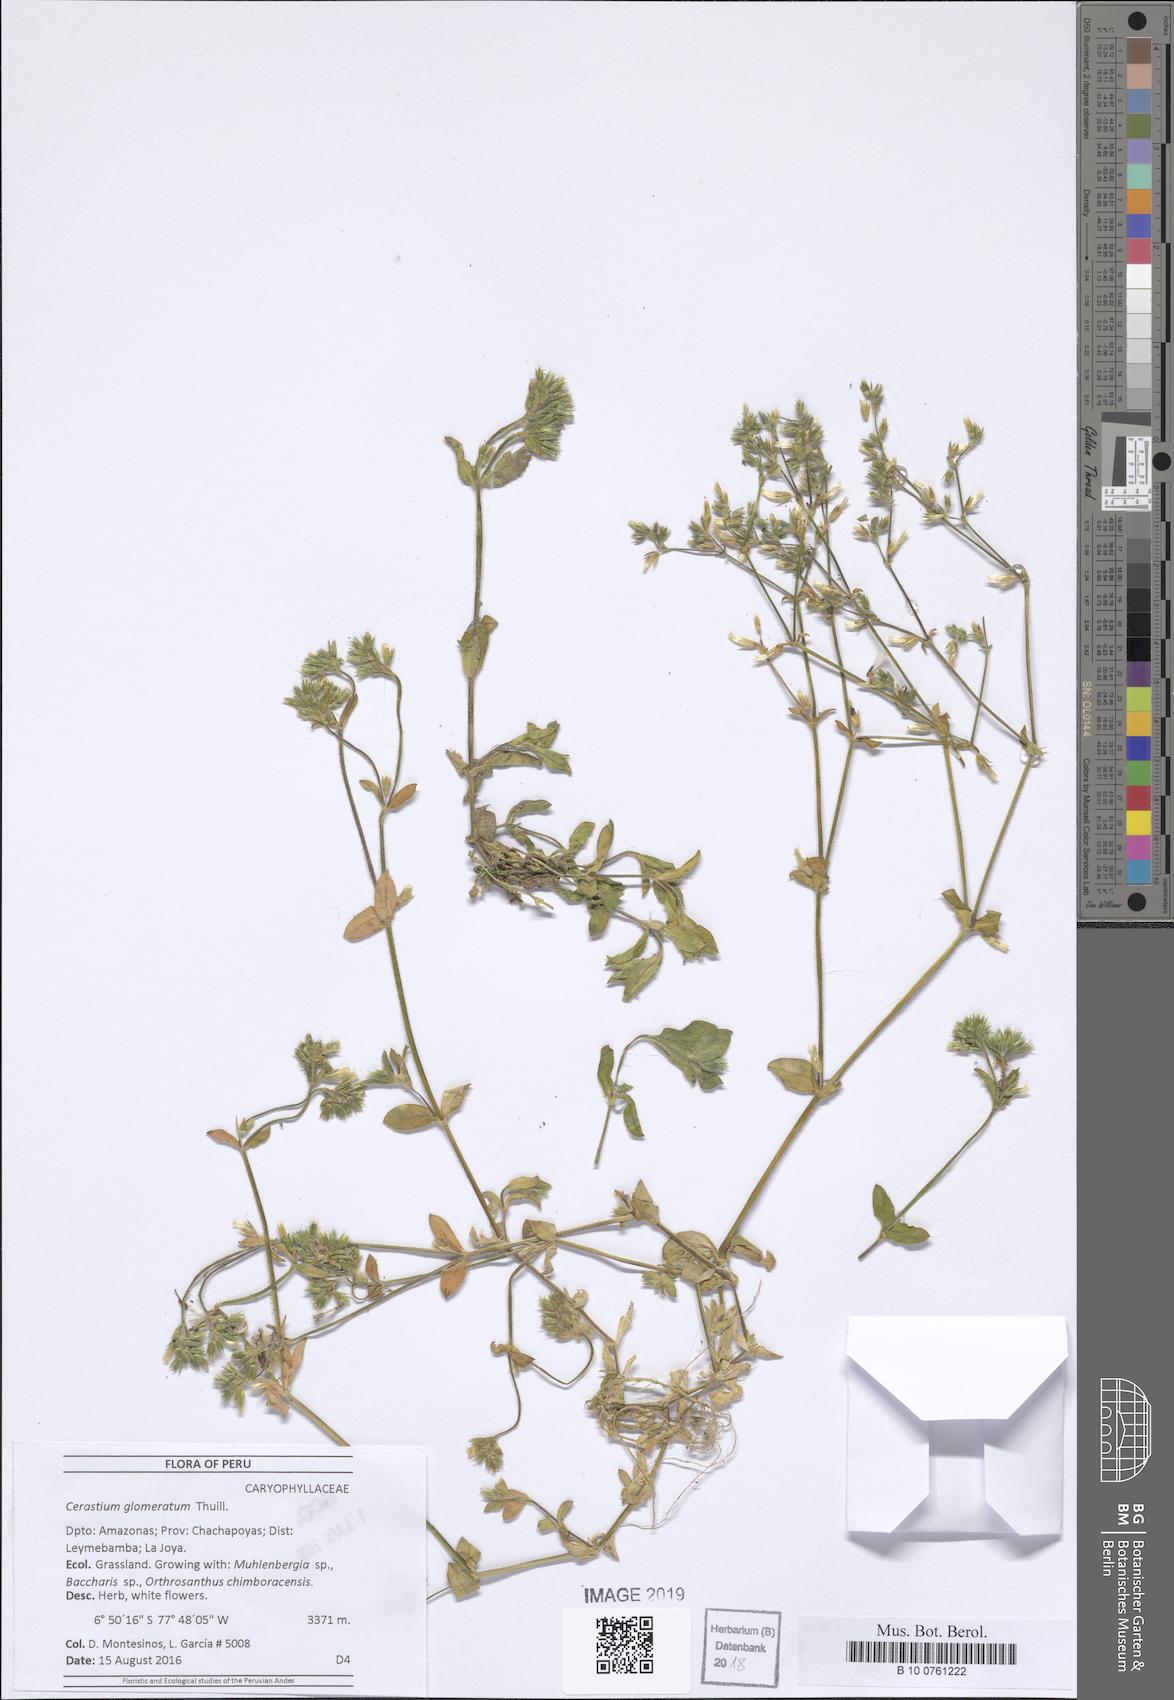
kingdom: Plantae
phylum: Tracheophyta
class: Magnoliopsida
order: Caryophyllales
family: Caryophyllaceae
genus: Cerastium
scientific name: Cerastium glomeratum
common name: Sticky chickweed
